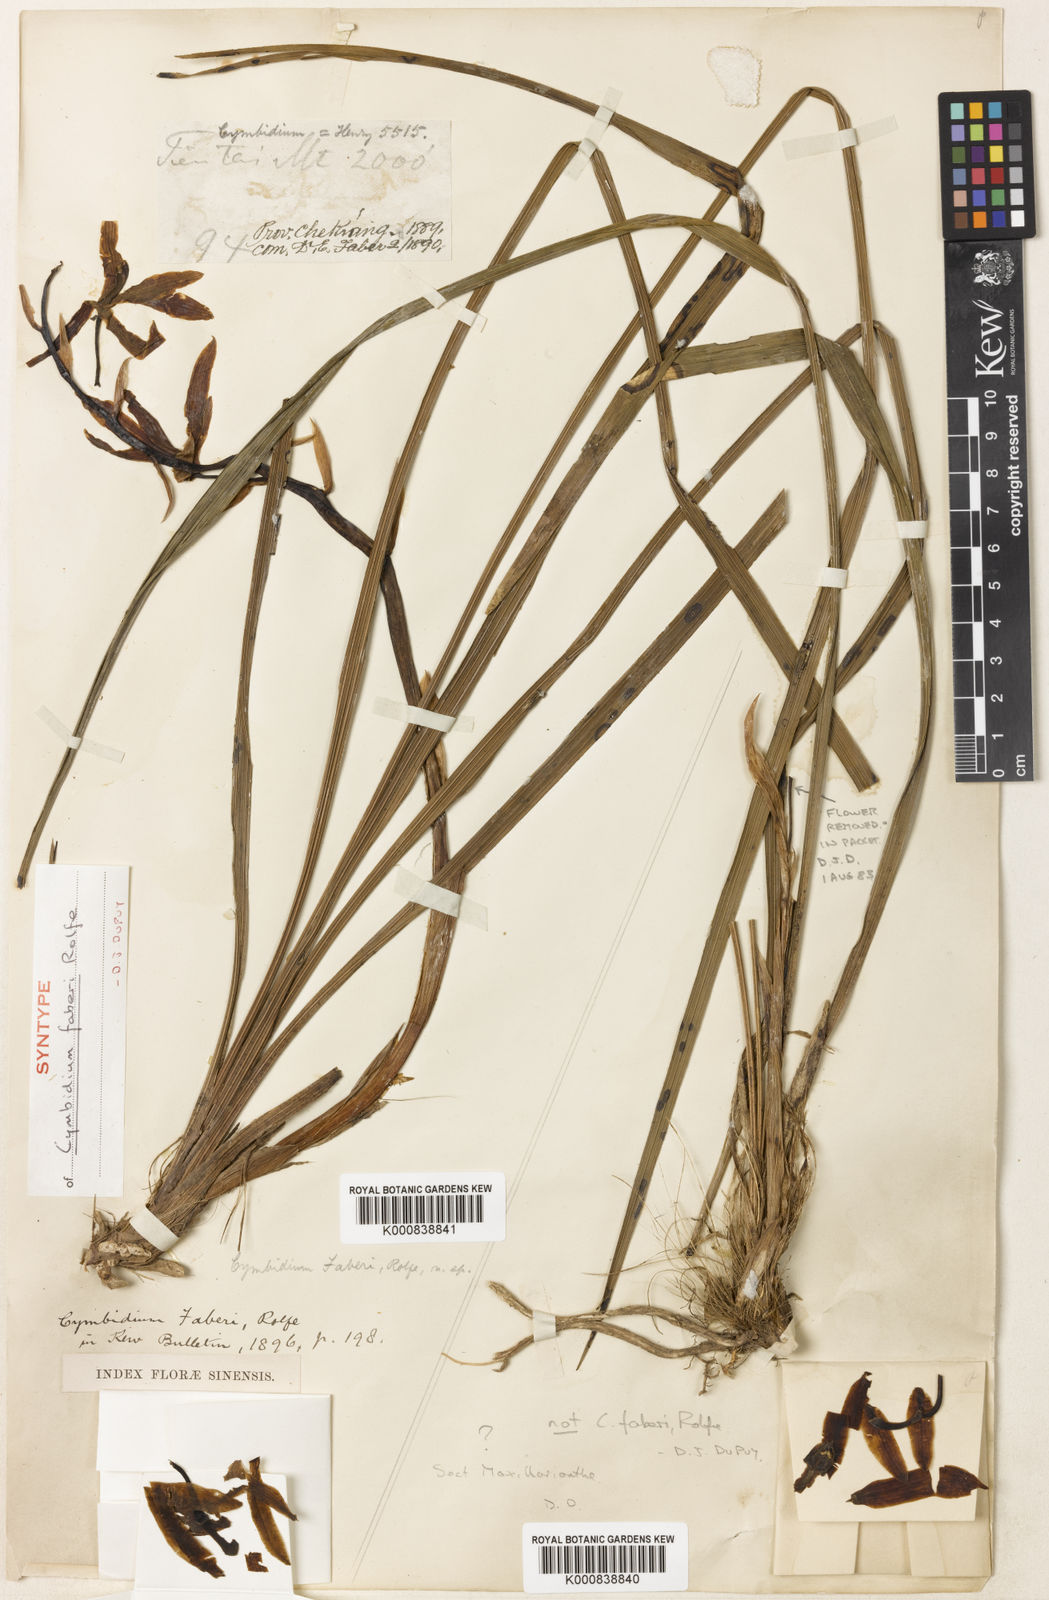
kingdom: Plantae
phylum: Tracheophyta
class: Liliopsida
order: Asparagales
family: Orchidaceae
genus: Cymbidium
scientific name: Cymbidium faberi
